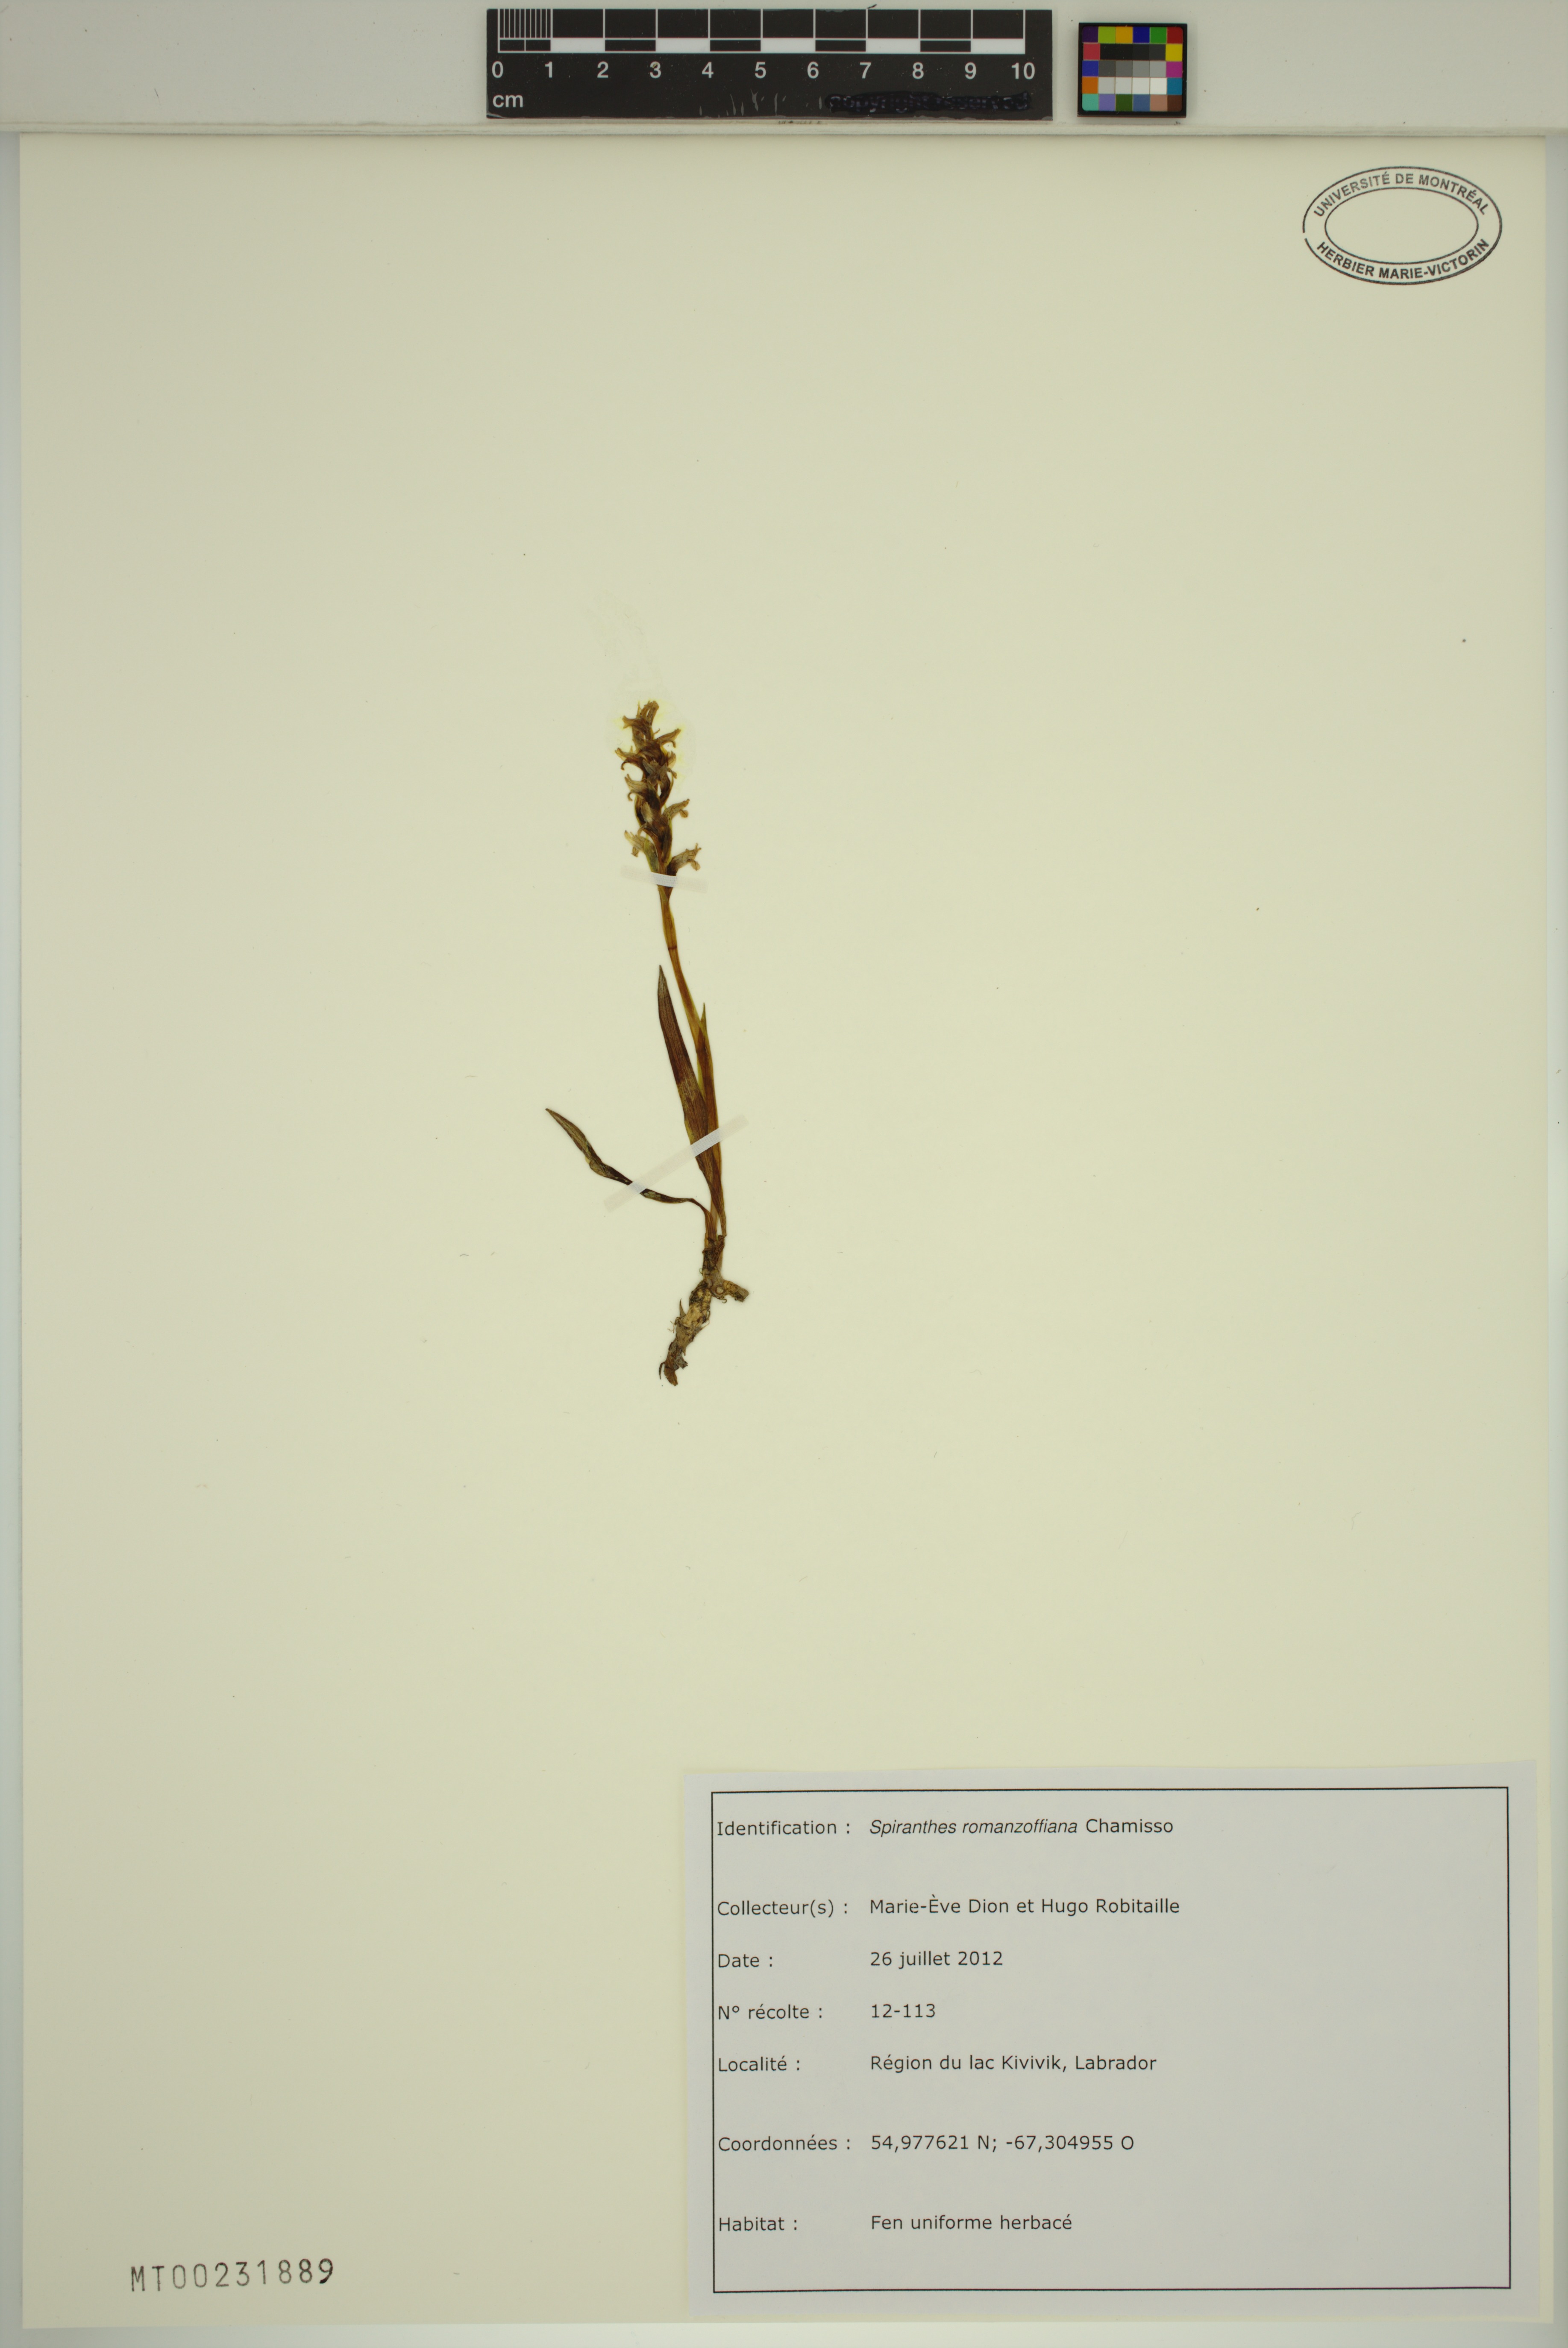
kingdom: Plantae
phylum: Tracheophyta
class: Liliopsida
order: Asparagales
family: Orchidaceae
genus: Spiranthes
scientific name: Spiranthes romanzoffiana
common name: Irish lady's-tresses
